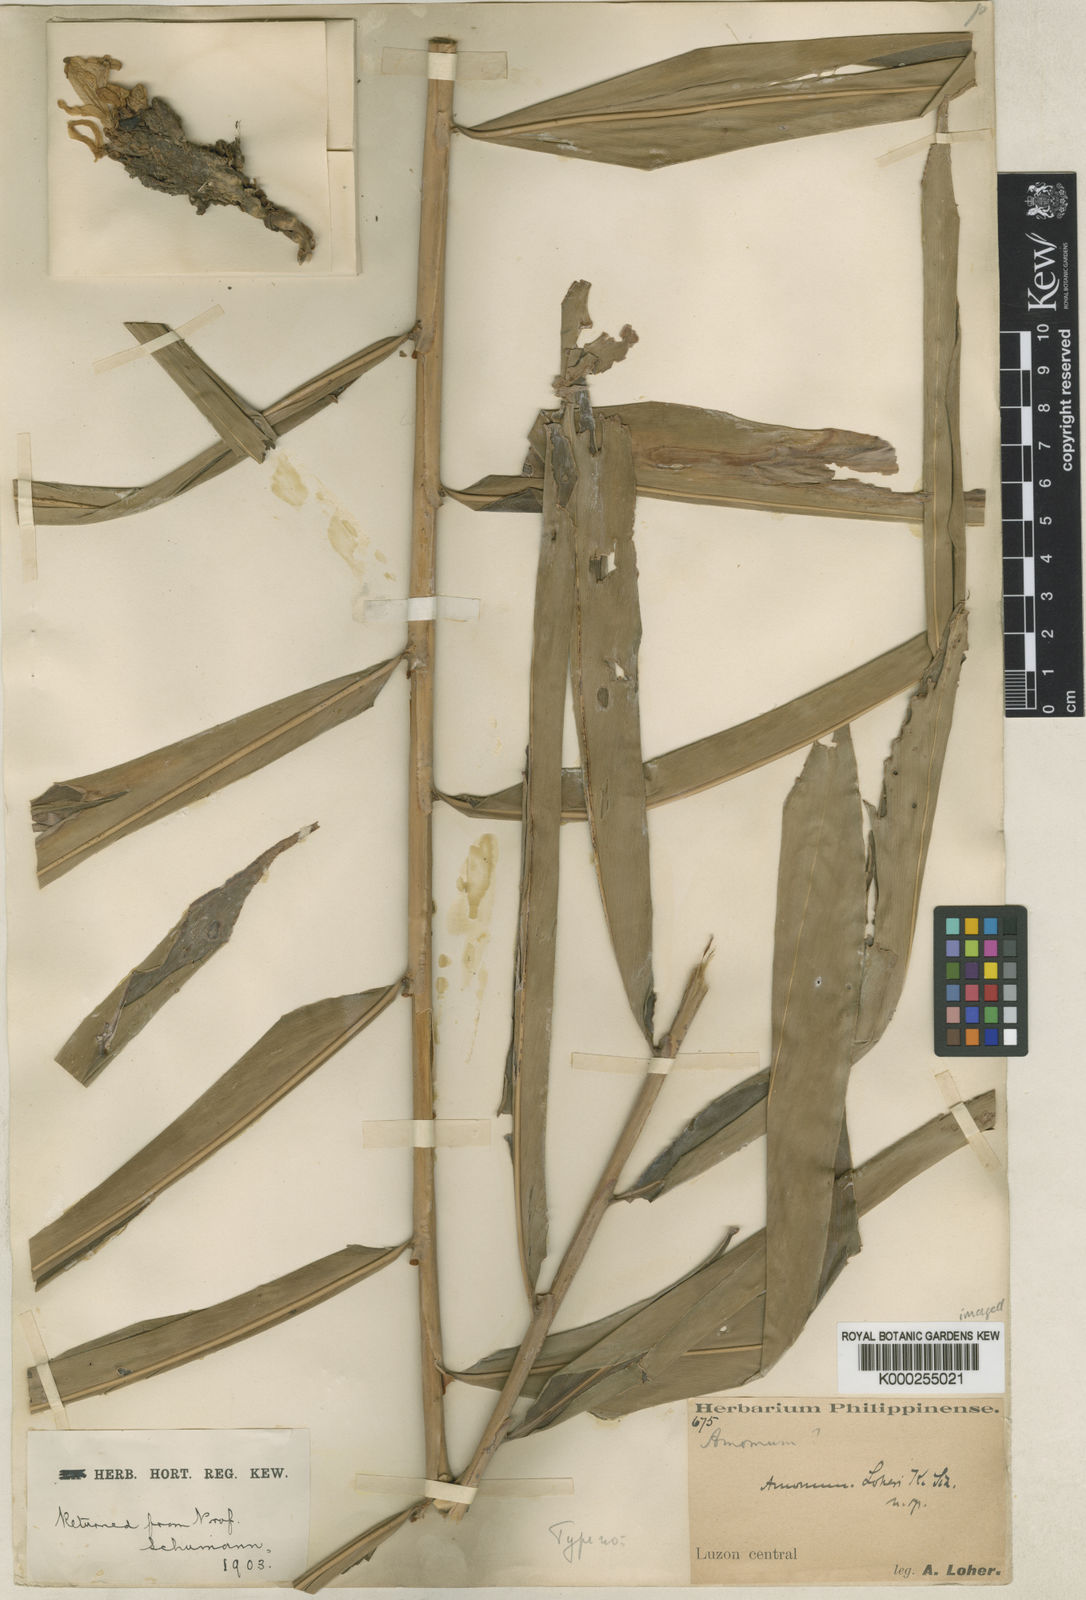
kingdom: Plantae
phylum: Tracheophyta
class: Liliopsida
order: Zingiberales
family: Zingiberaceae
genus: Meistera
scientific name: Meistera loheri
